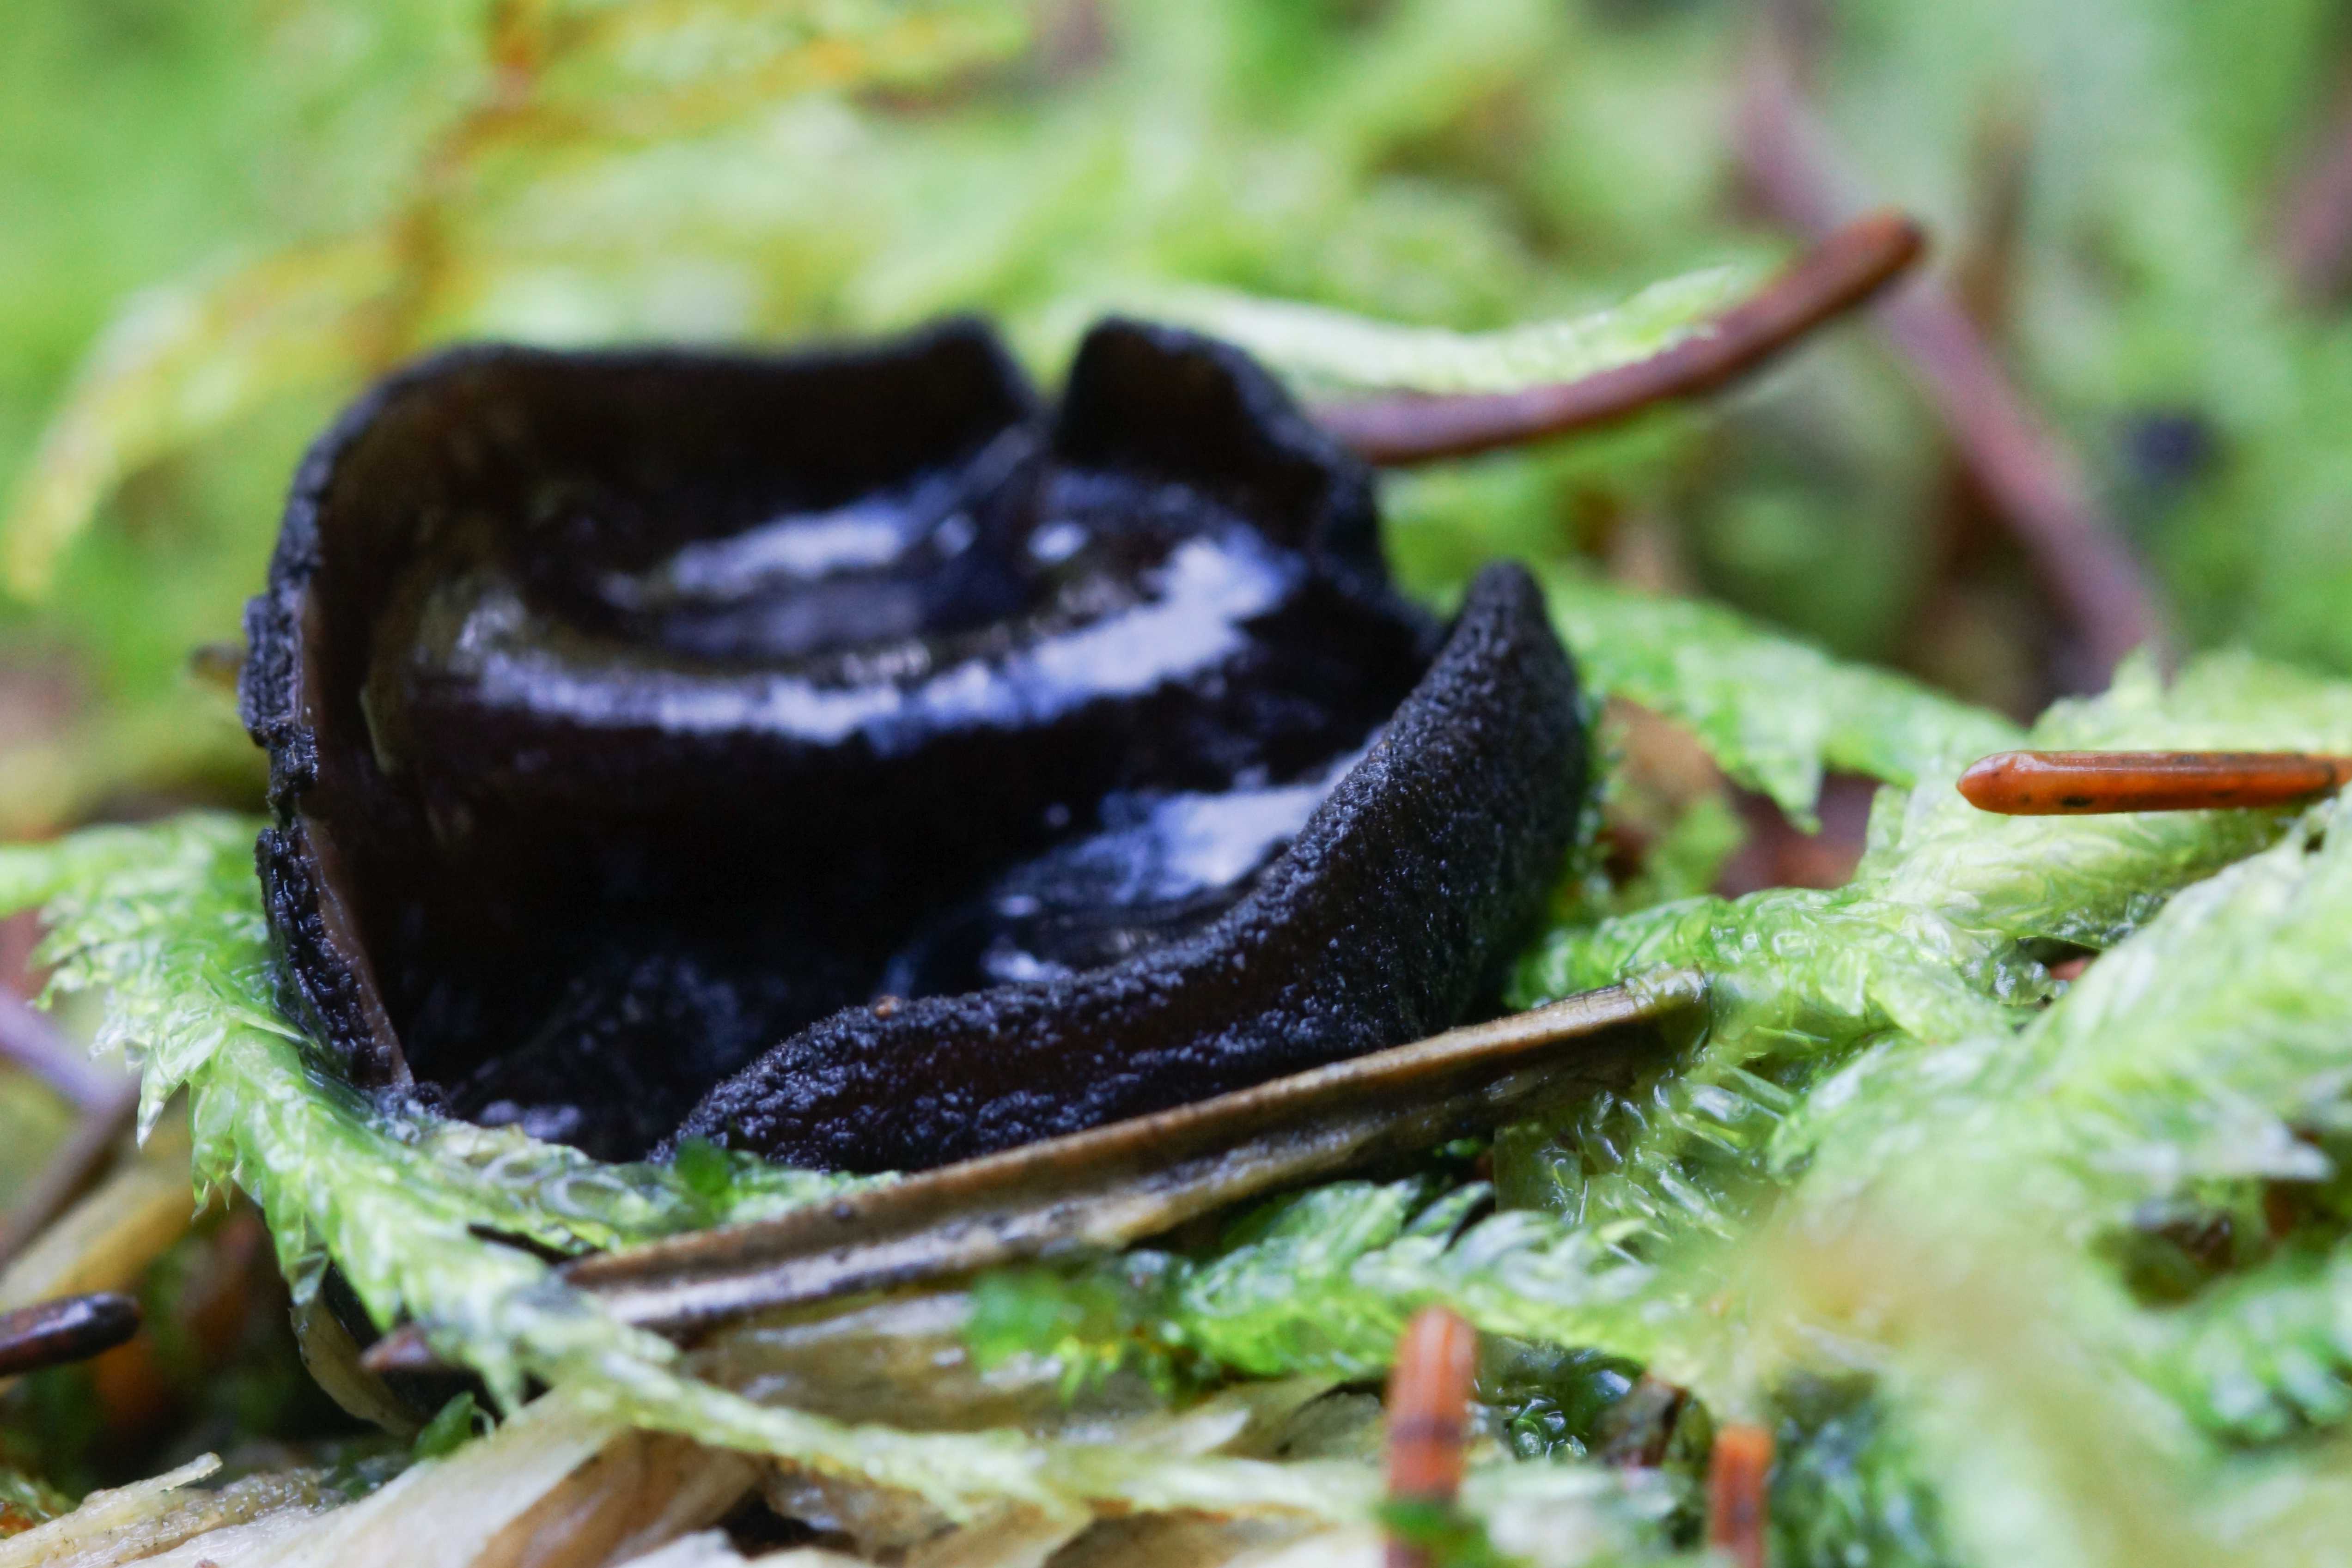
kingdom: Fungi
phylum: Ascomycota
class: Pezizomycetes
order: Pezizales
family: Sarcosomataceae
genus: Pseudoplectania
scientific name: Pseudoplectania nigrella
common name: almindelig sortbæger
